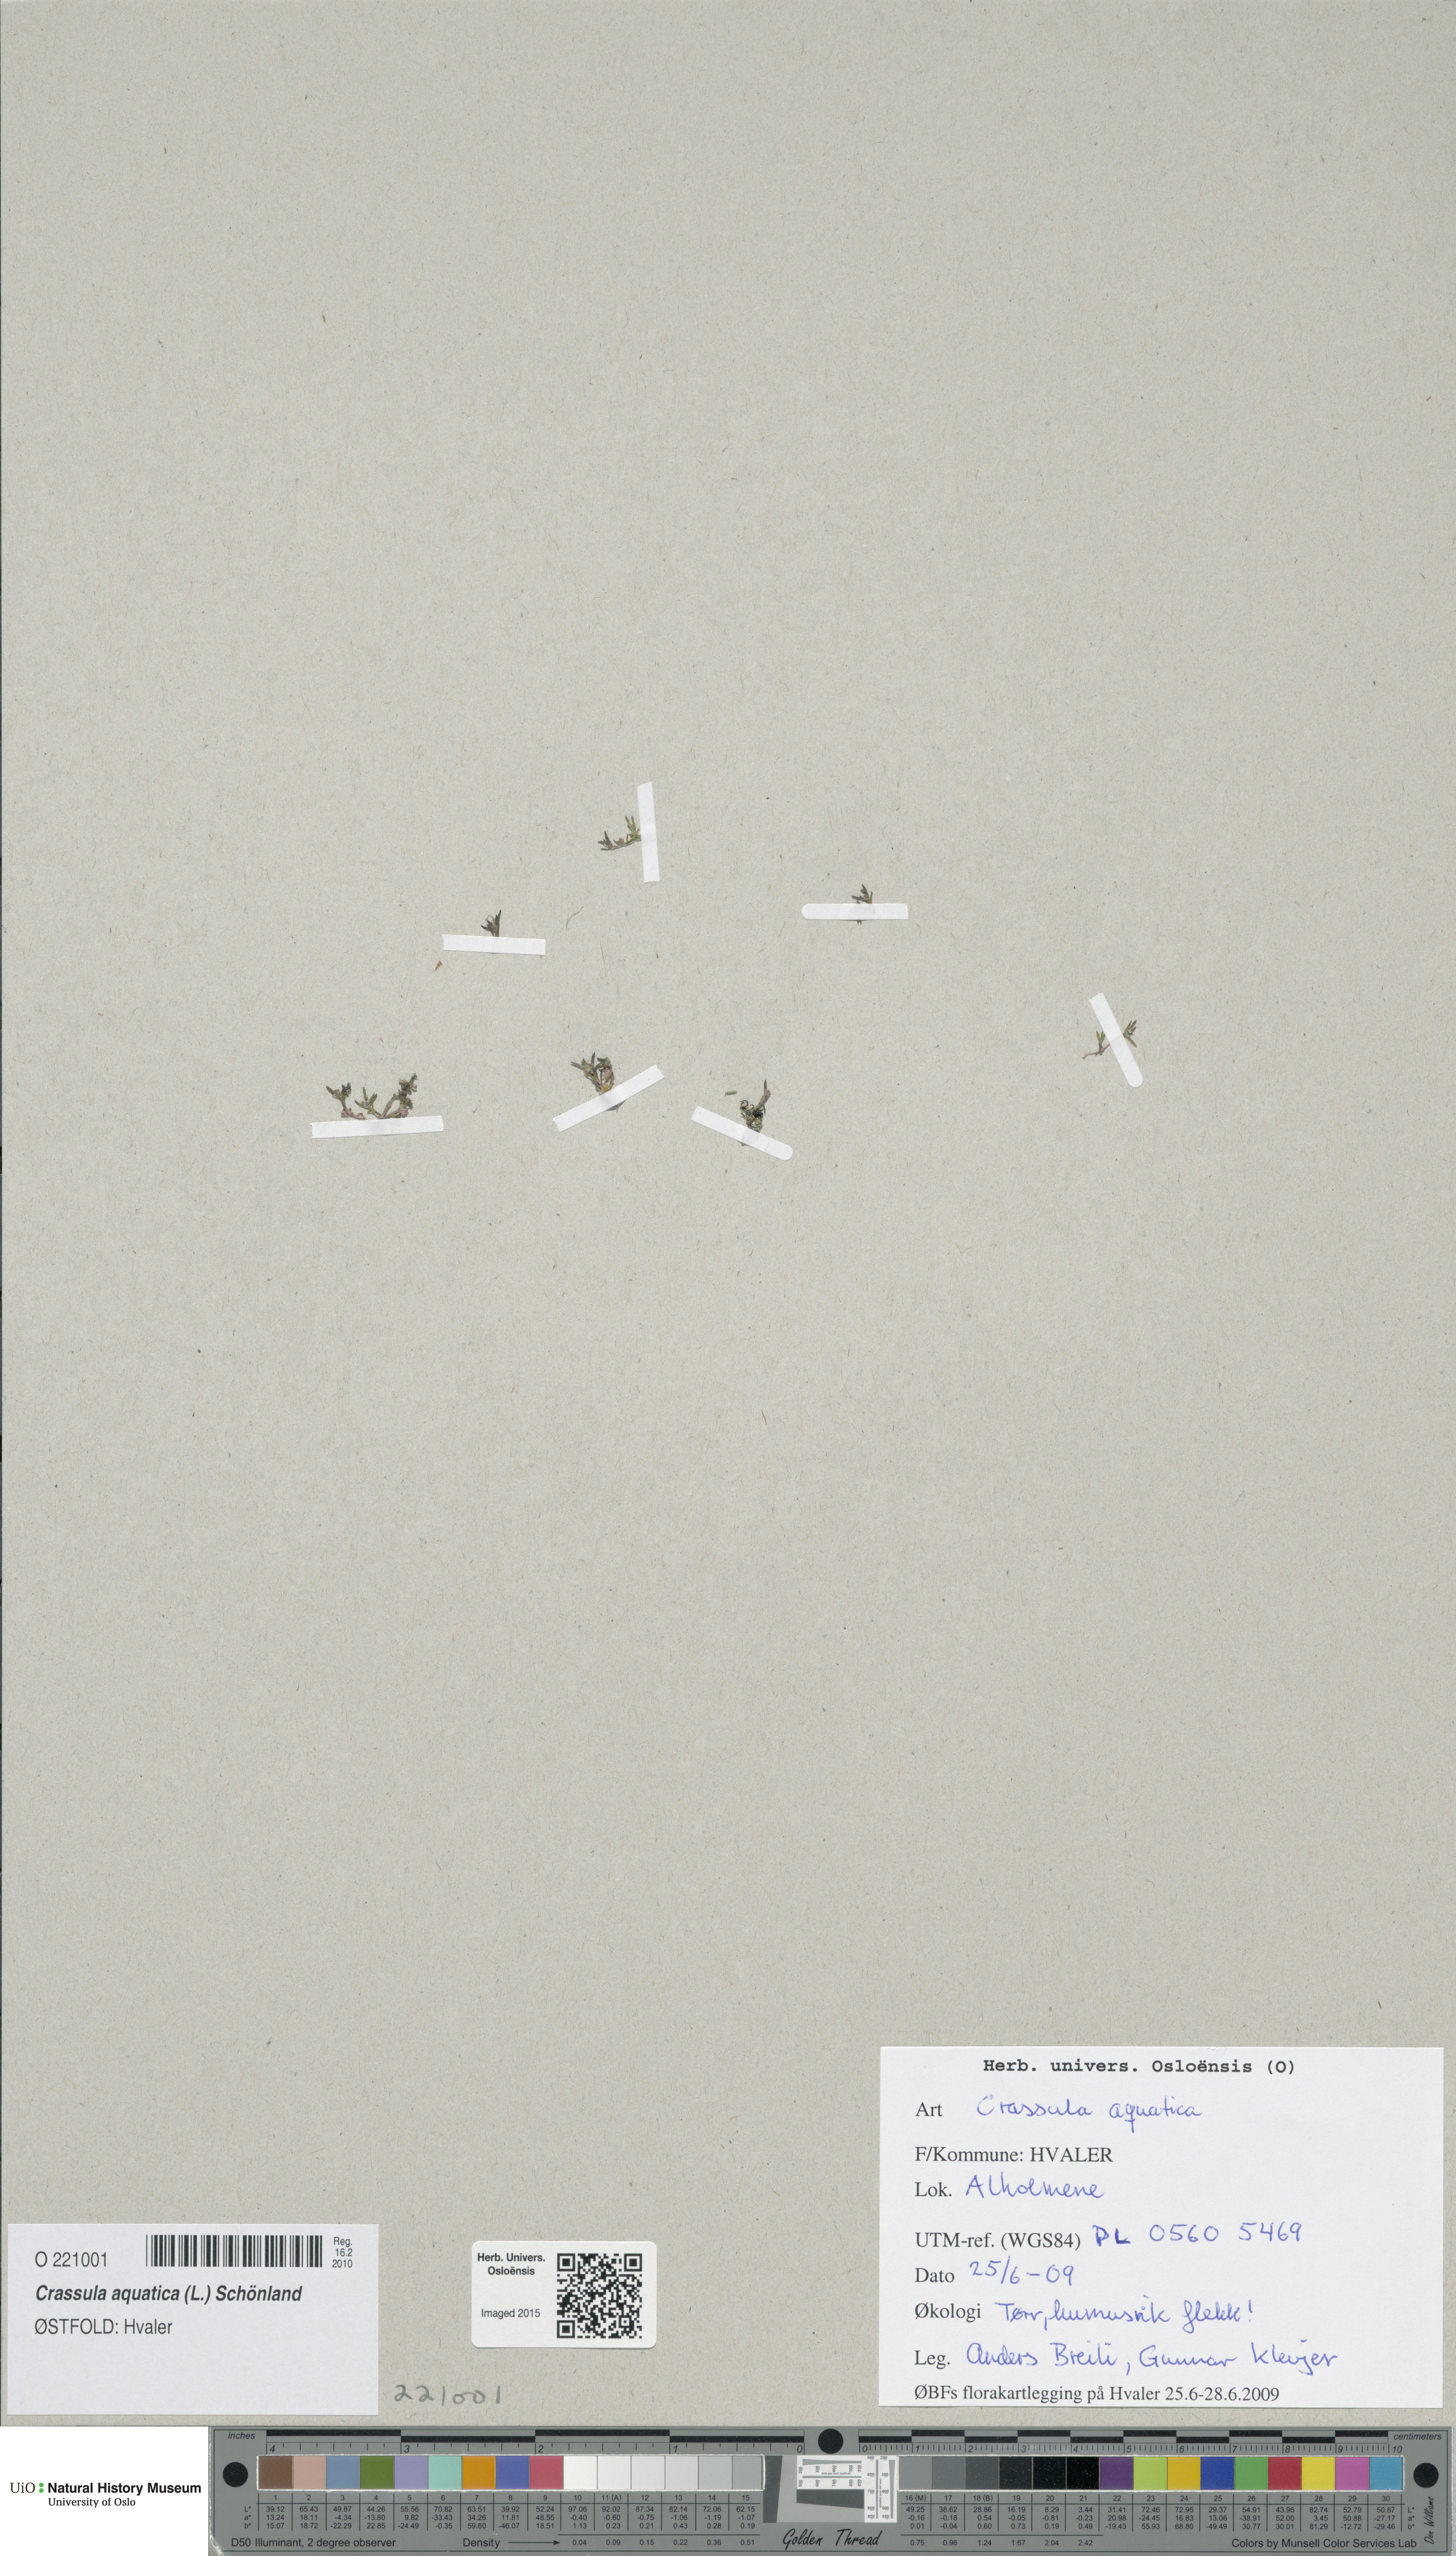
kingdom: Plantae
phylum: Tracheophyta
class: Magnoliopsida
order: Saxifragales
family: Crassulaceae
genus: Crassula
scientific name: Crassula aquatica
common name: Pigmyweed
